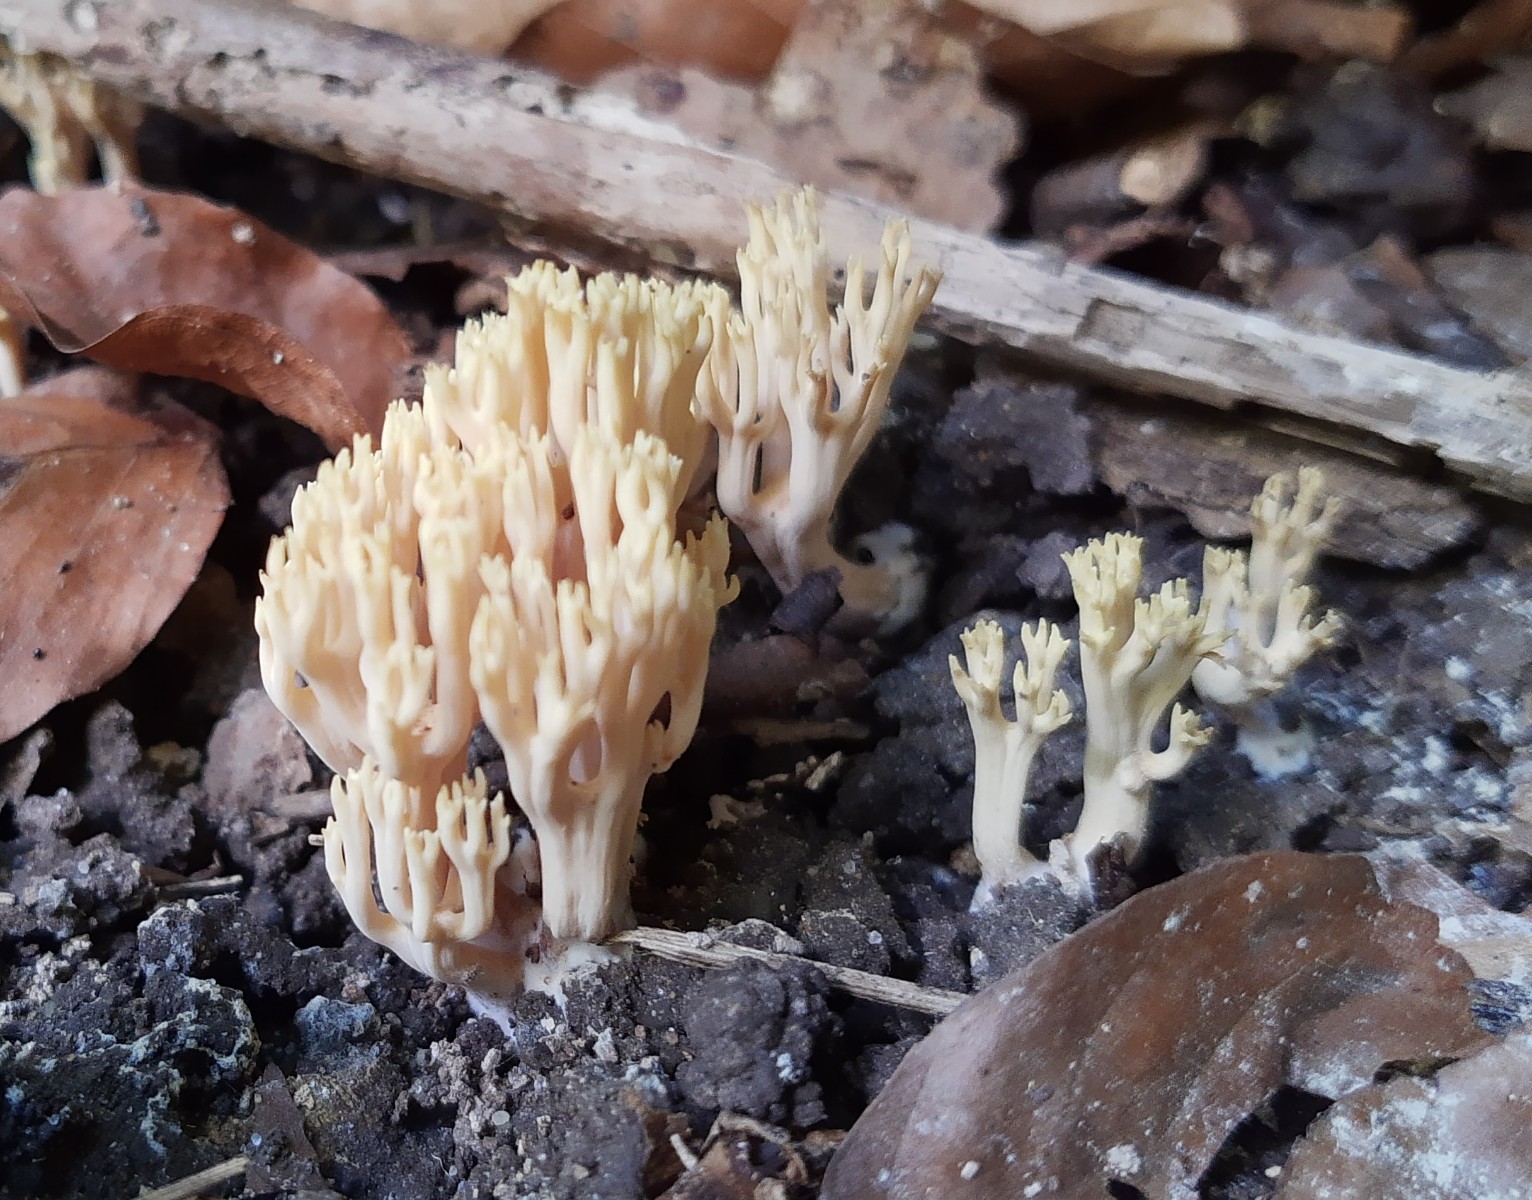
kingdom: Fungi
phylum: Basidiomycota
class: Agaricomycetes
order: Gomphales
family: Gomphaceae
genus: Ramaria
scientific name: Ramaria stricta
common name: rank koralsvamp
